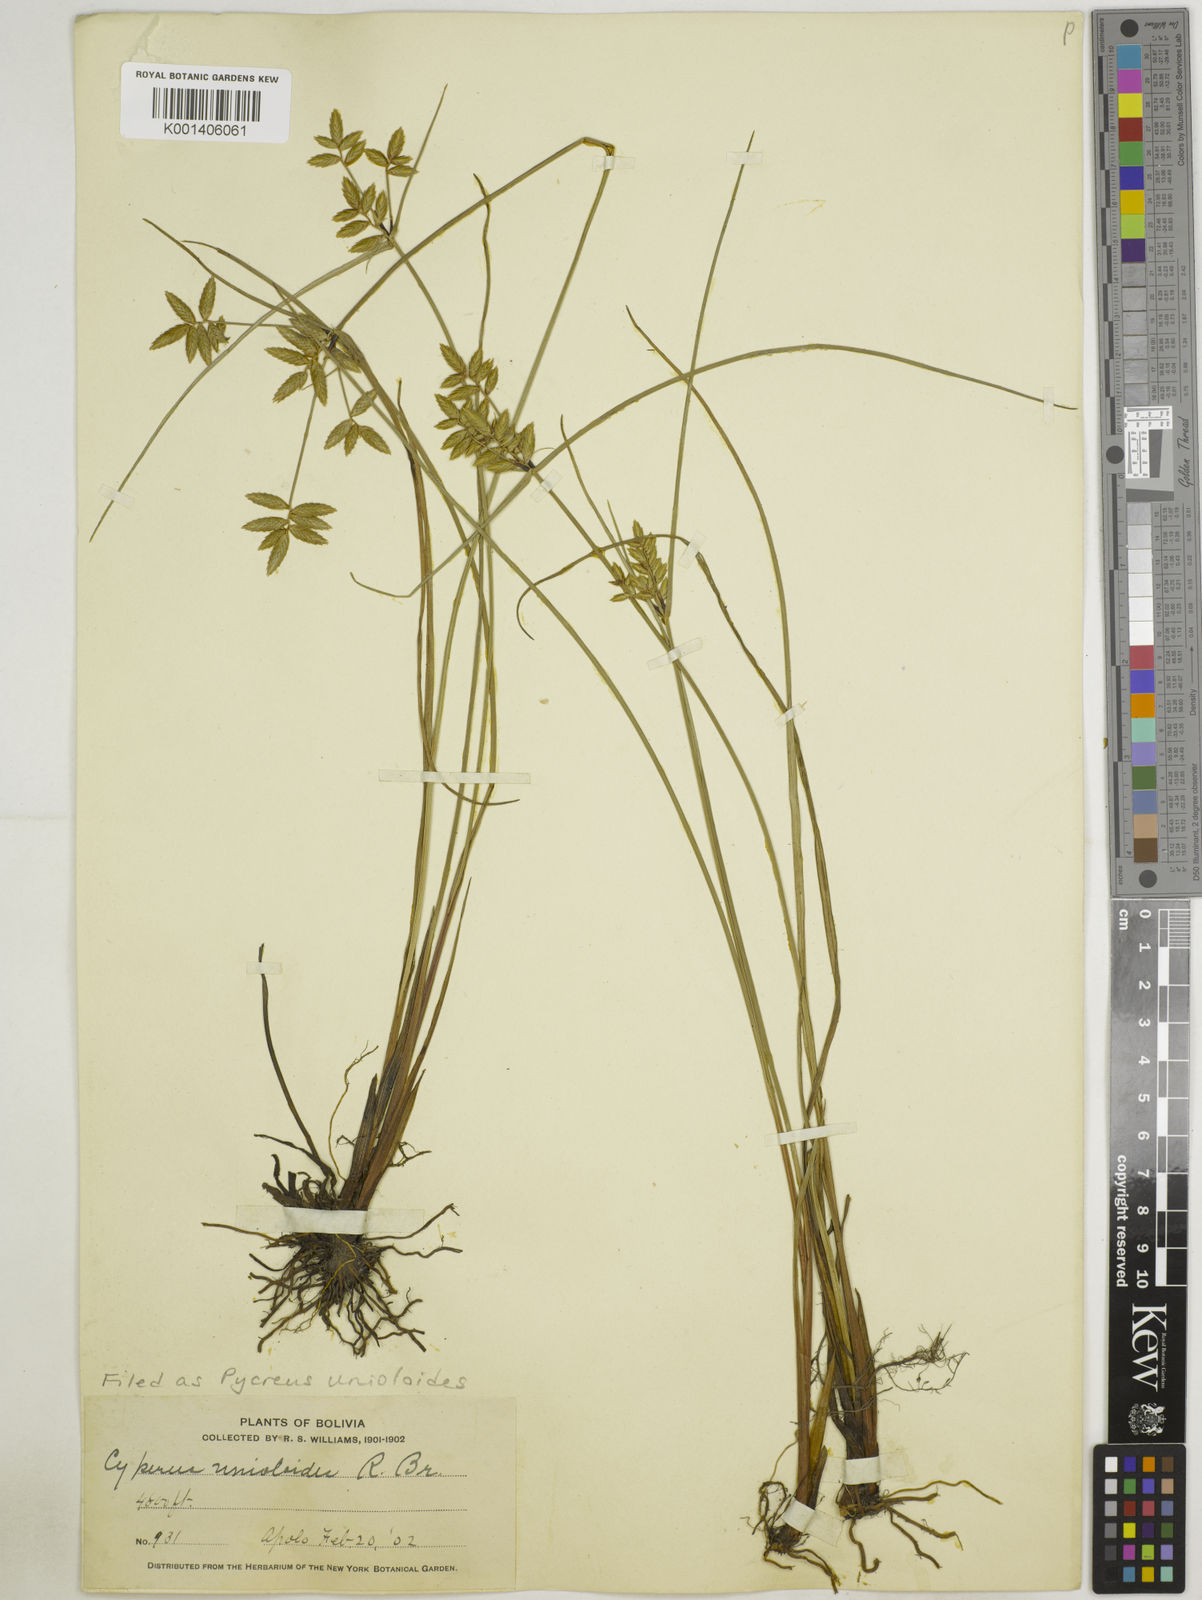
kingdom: Plantae
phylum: Tracheophyta
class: Liliopsida
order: Poales
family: Cyperaceae
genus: Cyperus
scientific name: Cyperus unioloides
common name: Uniola flatsedge
